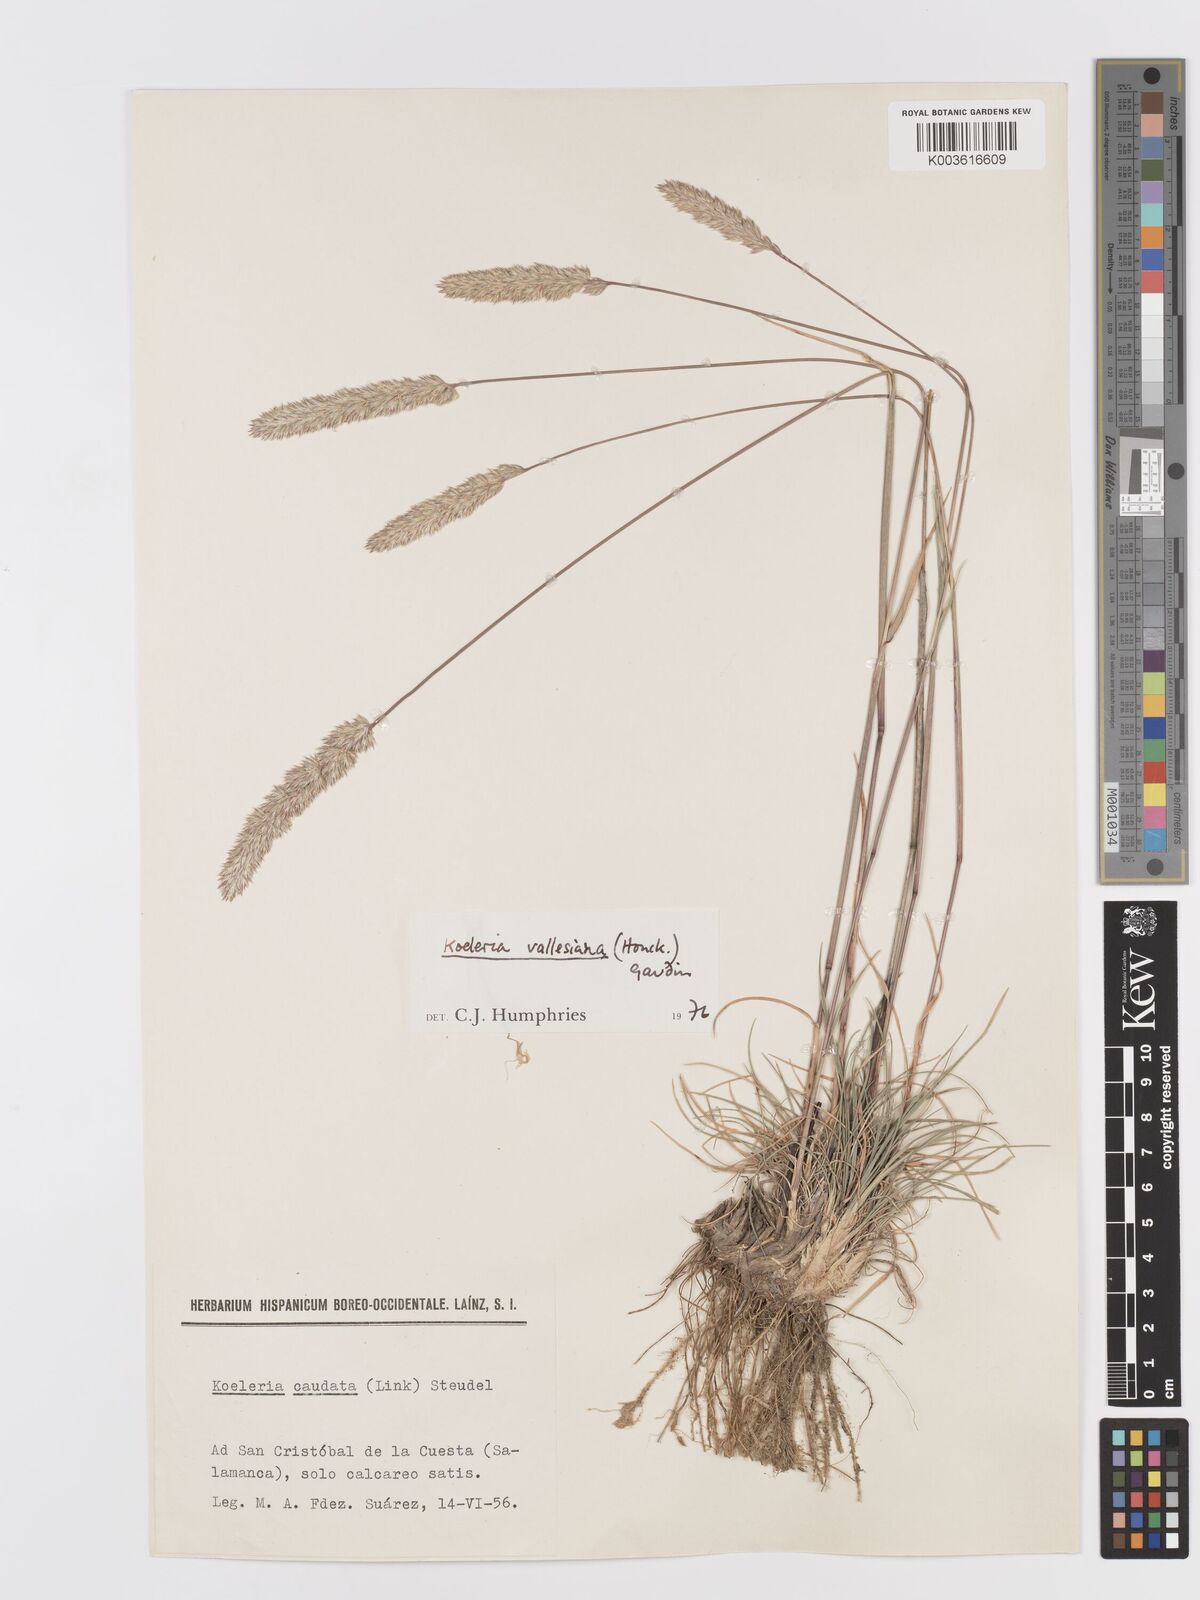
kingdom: Plantae
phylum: Tracheophyta
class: Liliopsida
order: Poales
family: Poaceae
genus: Koeleria
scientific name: Koeleria vallesiana
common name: Somerset hair-grass
